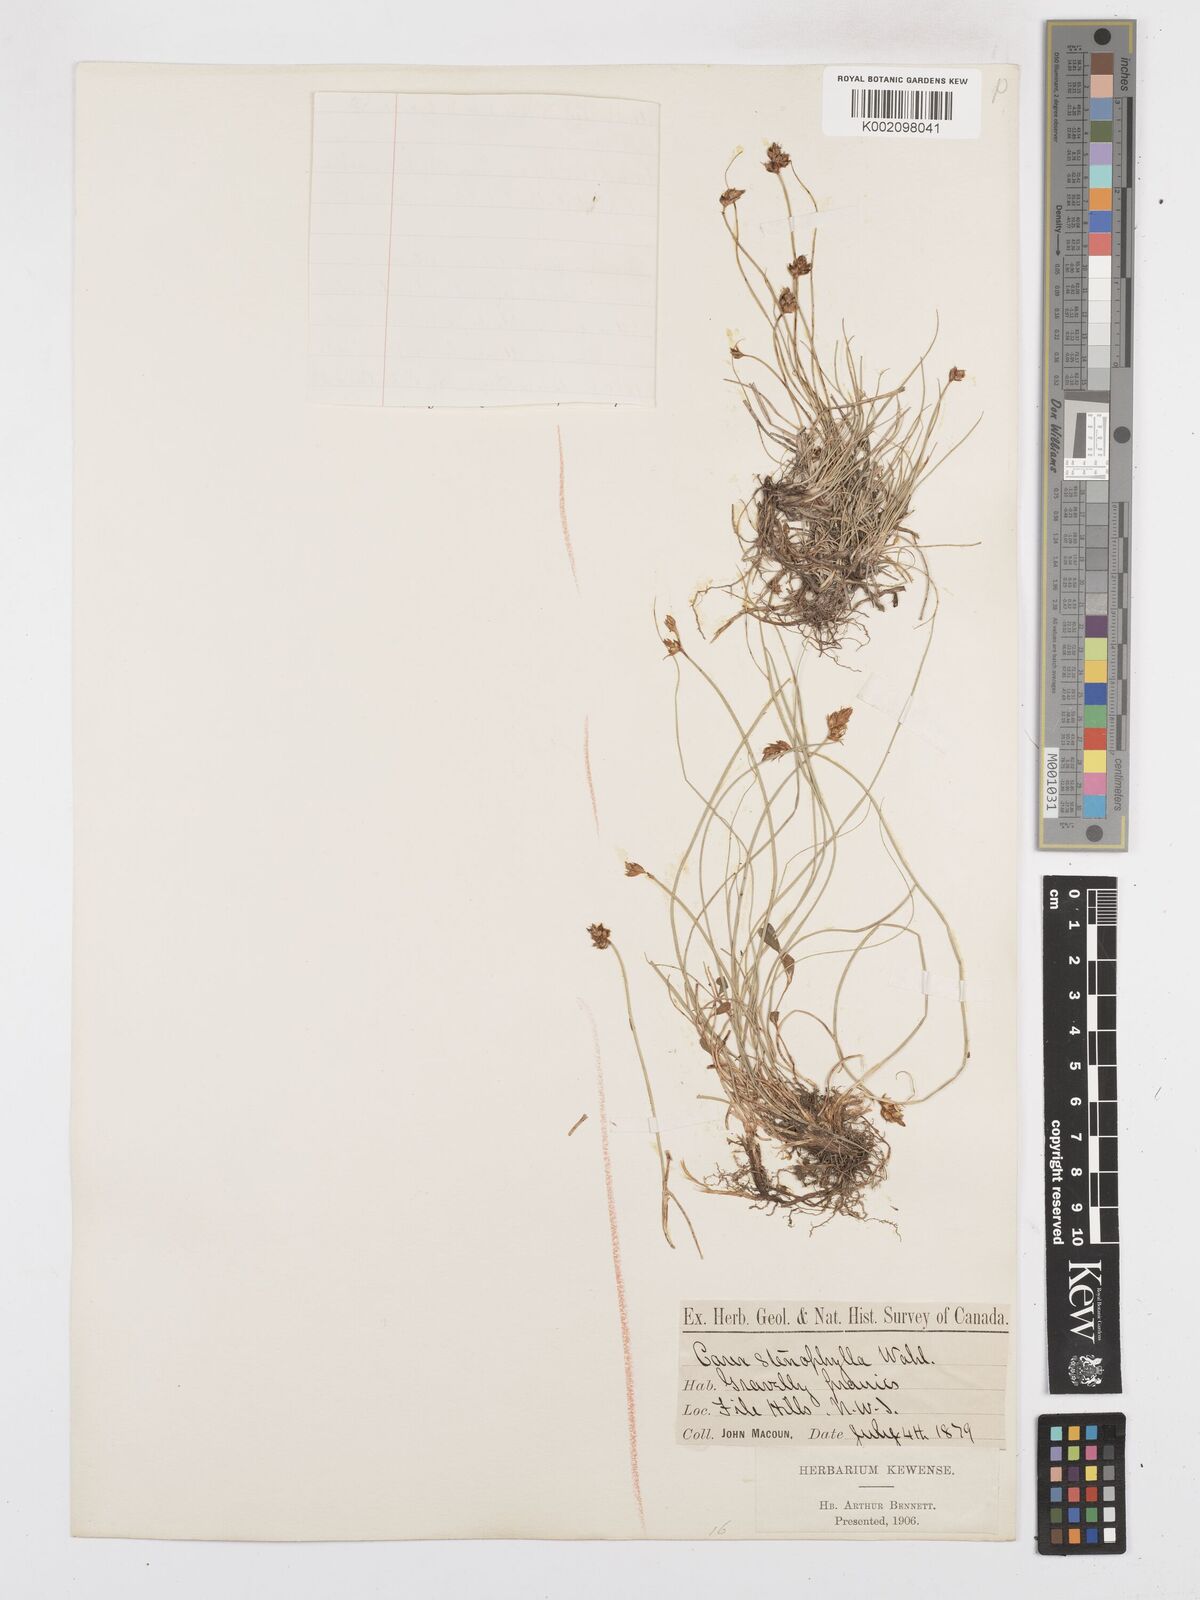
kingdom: Plantae
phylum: Tracheophyta
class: Liliopsida
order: Poales
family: Cyperaceae
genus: Carex
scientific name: Carex duriuscula
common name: Involute-leaved sedge
